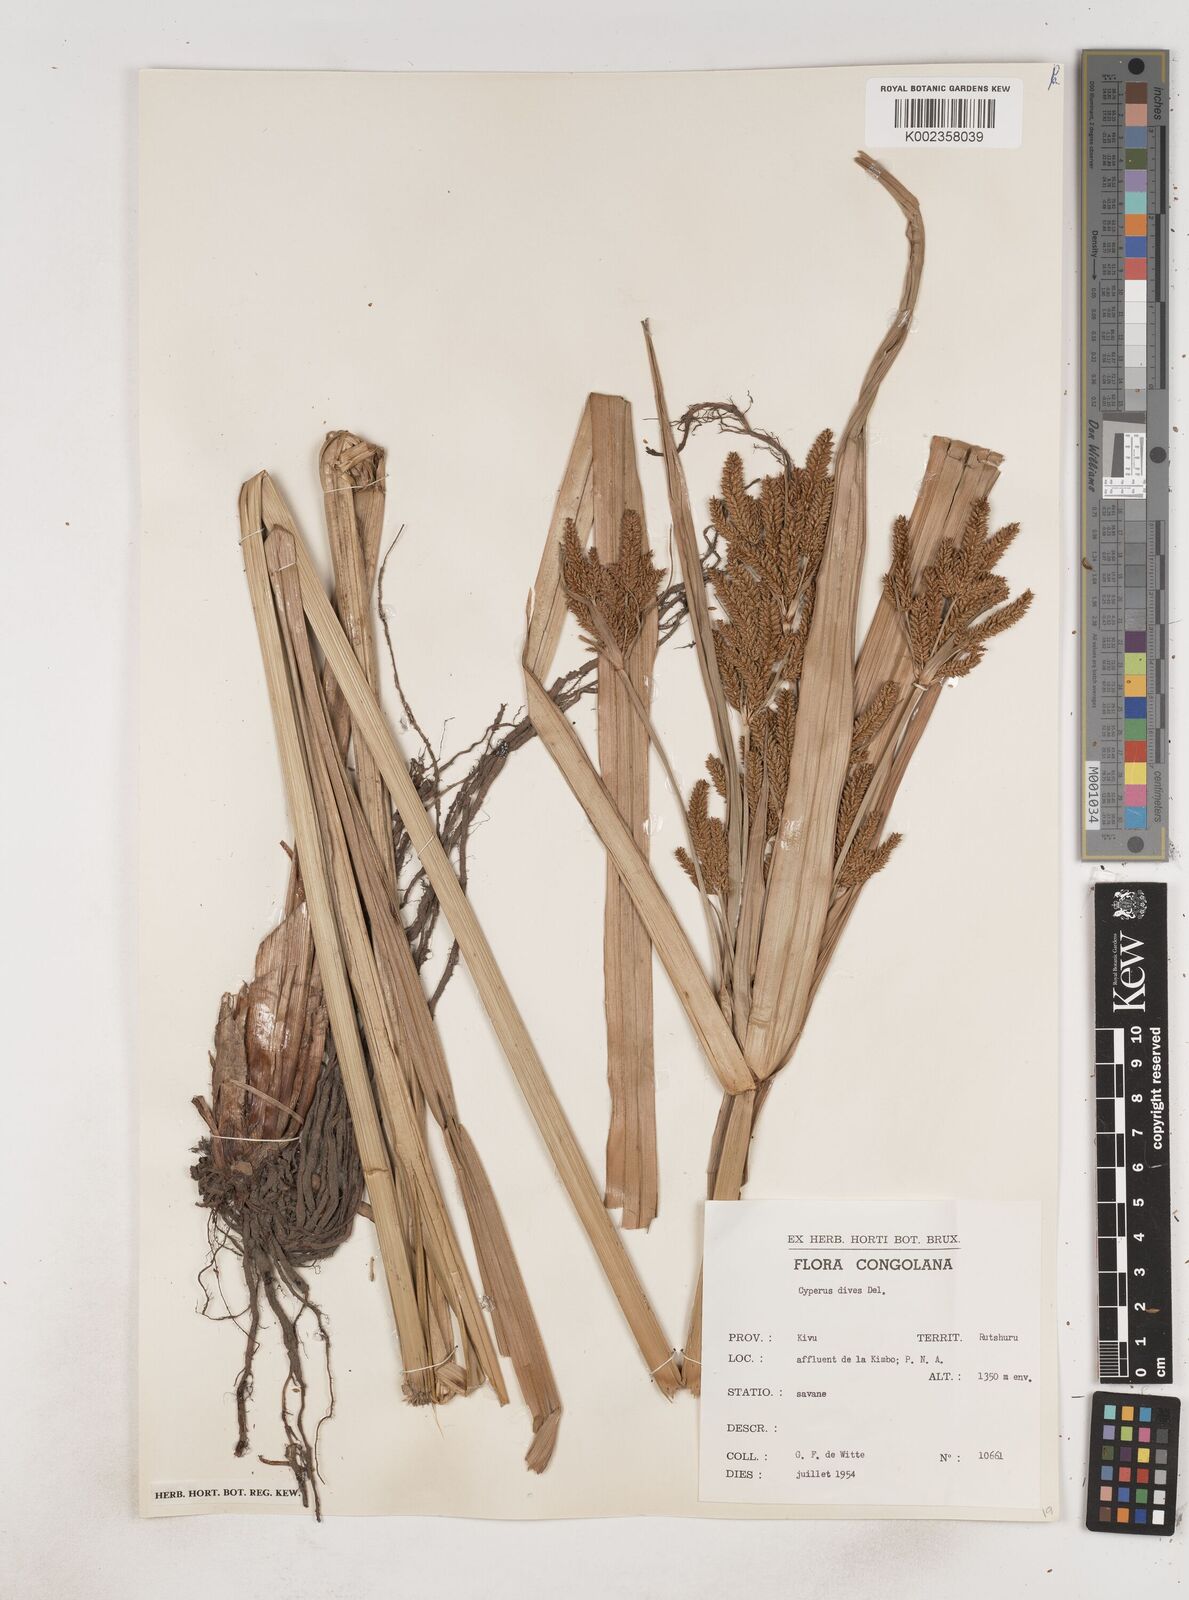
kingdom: Plantae
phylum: Tracheophyta
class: Liliopsida
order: Poales
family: Cyperaceae
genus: Cyperus
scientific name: Cyperus dives
